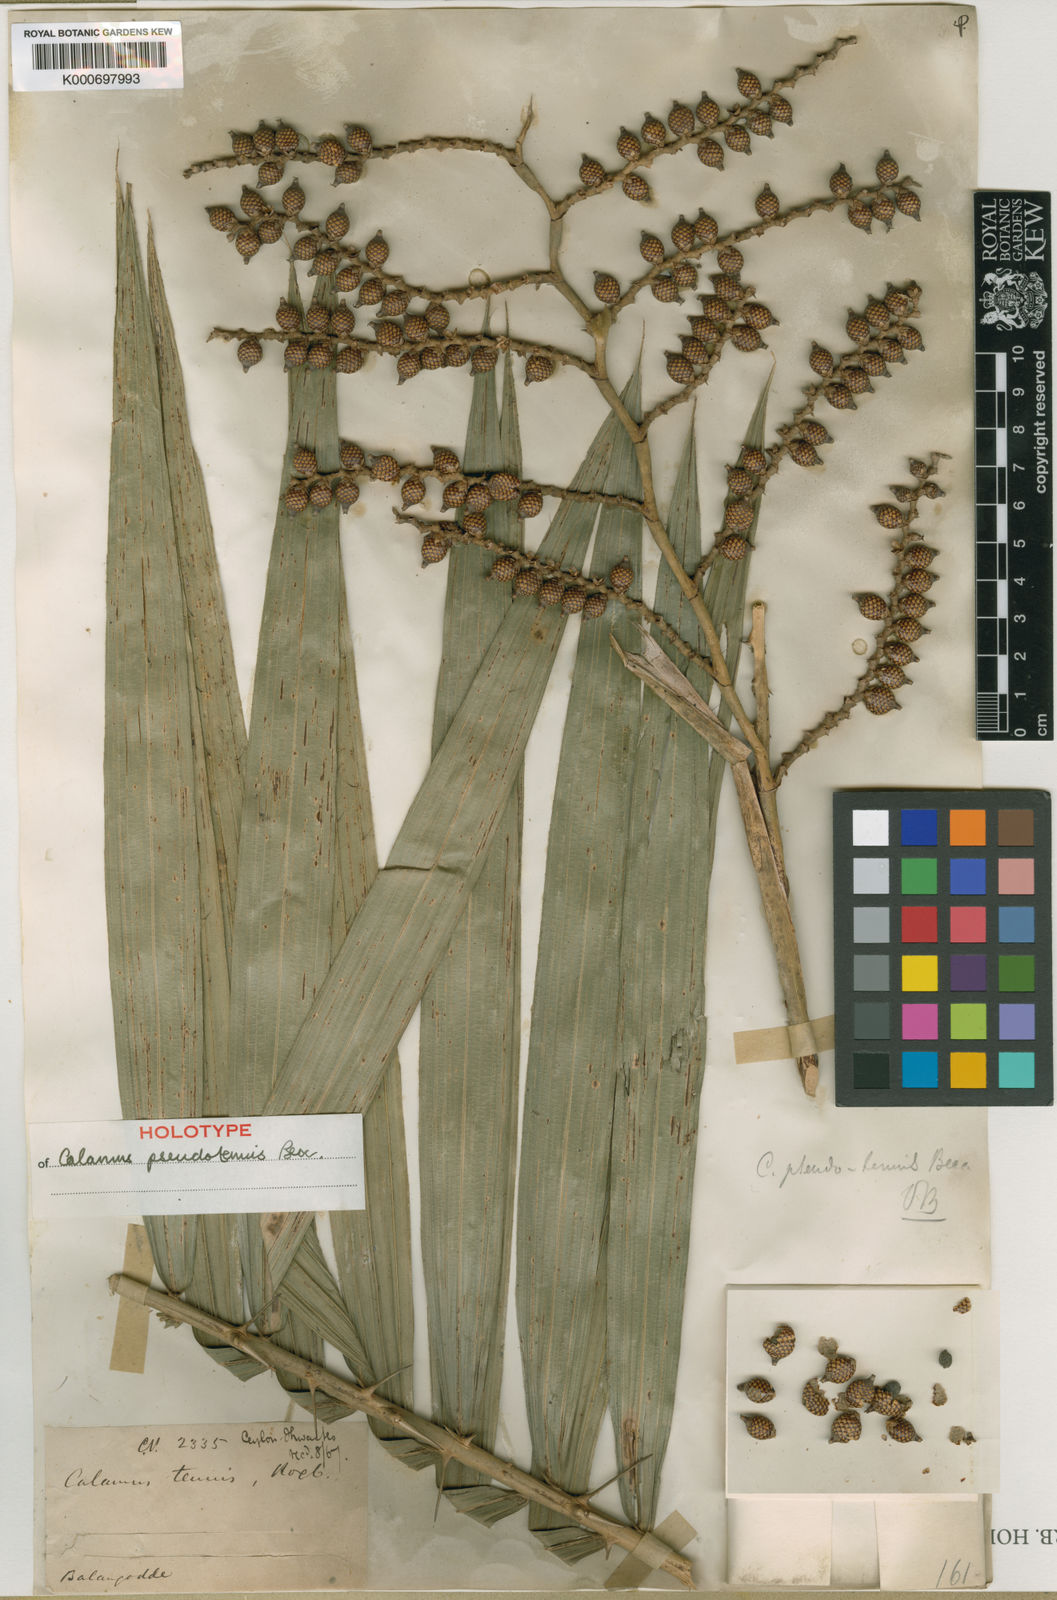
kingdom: Plantae
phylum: Tracheophyta
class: Liliopsida
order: Arecales
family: Arecaceae
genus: Calamus
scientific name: Calamus
